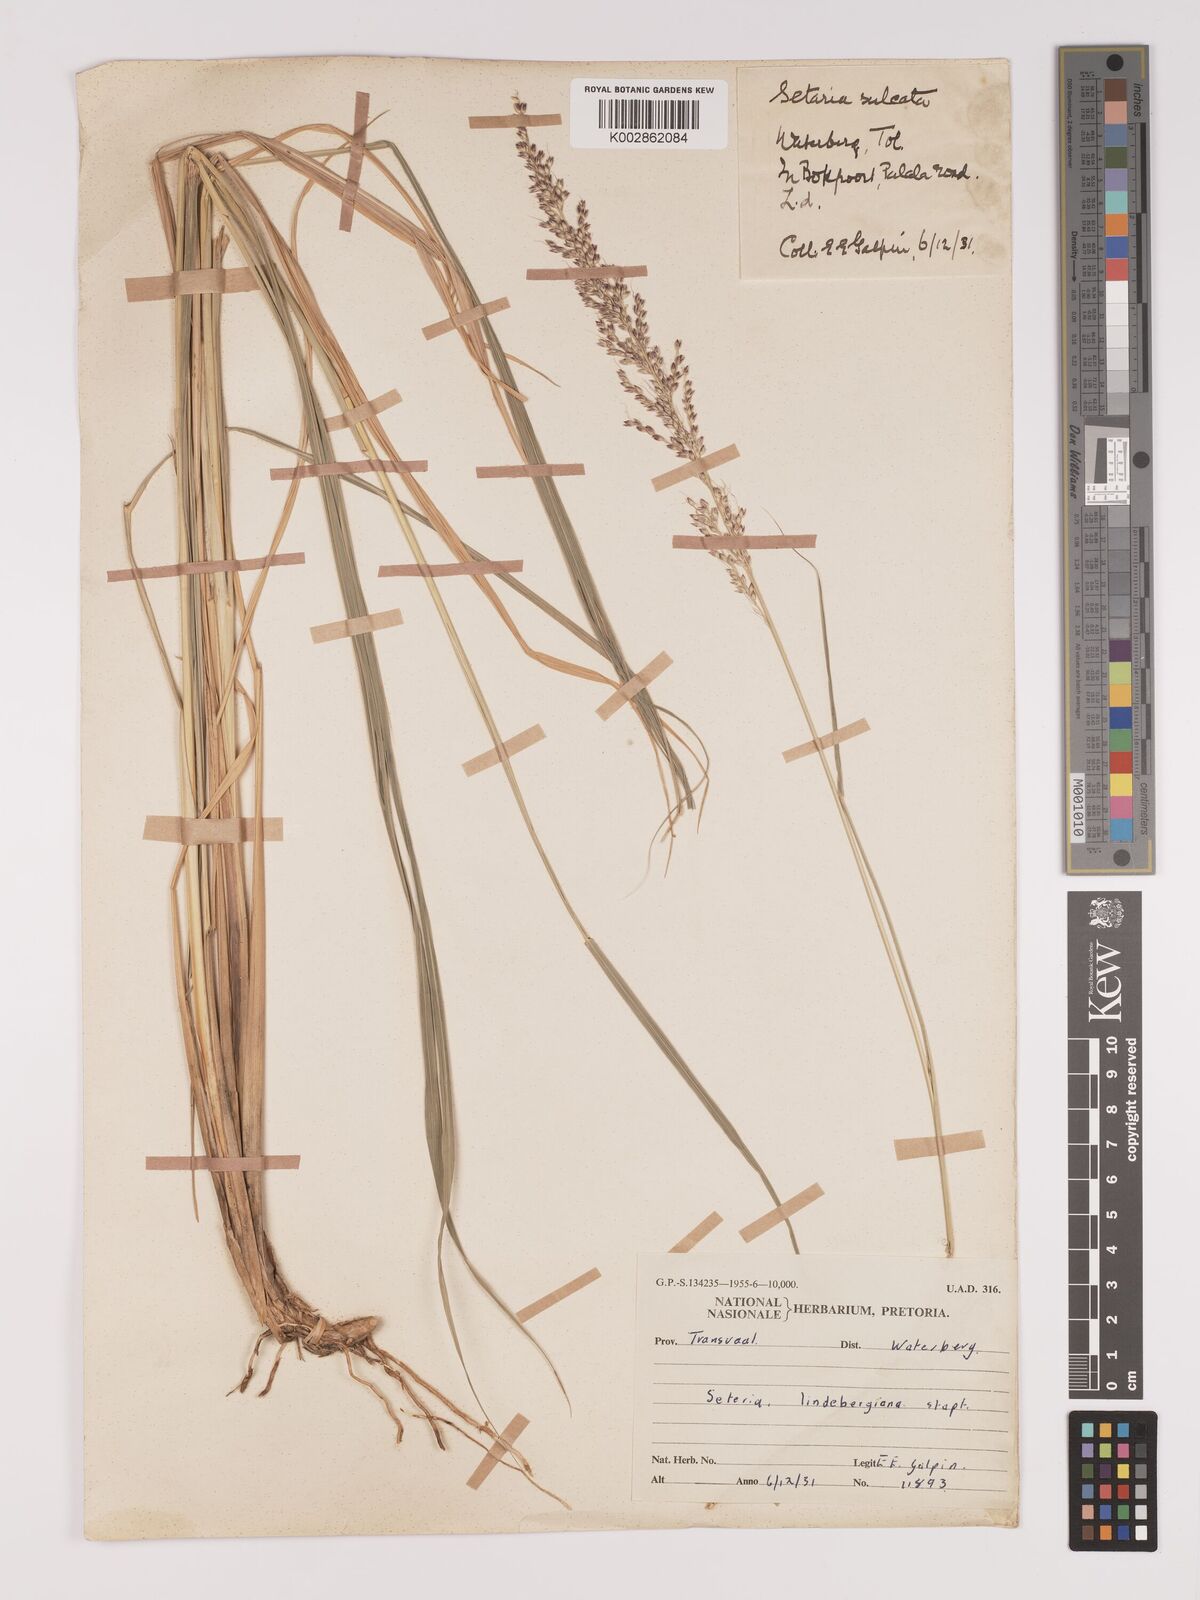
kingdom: Plantae
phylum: Tracheophyta
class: Liliopsida
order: Poales
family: Poaceae
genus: Setaria
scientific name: Setaria lindenbergiana
